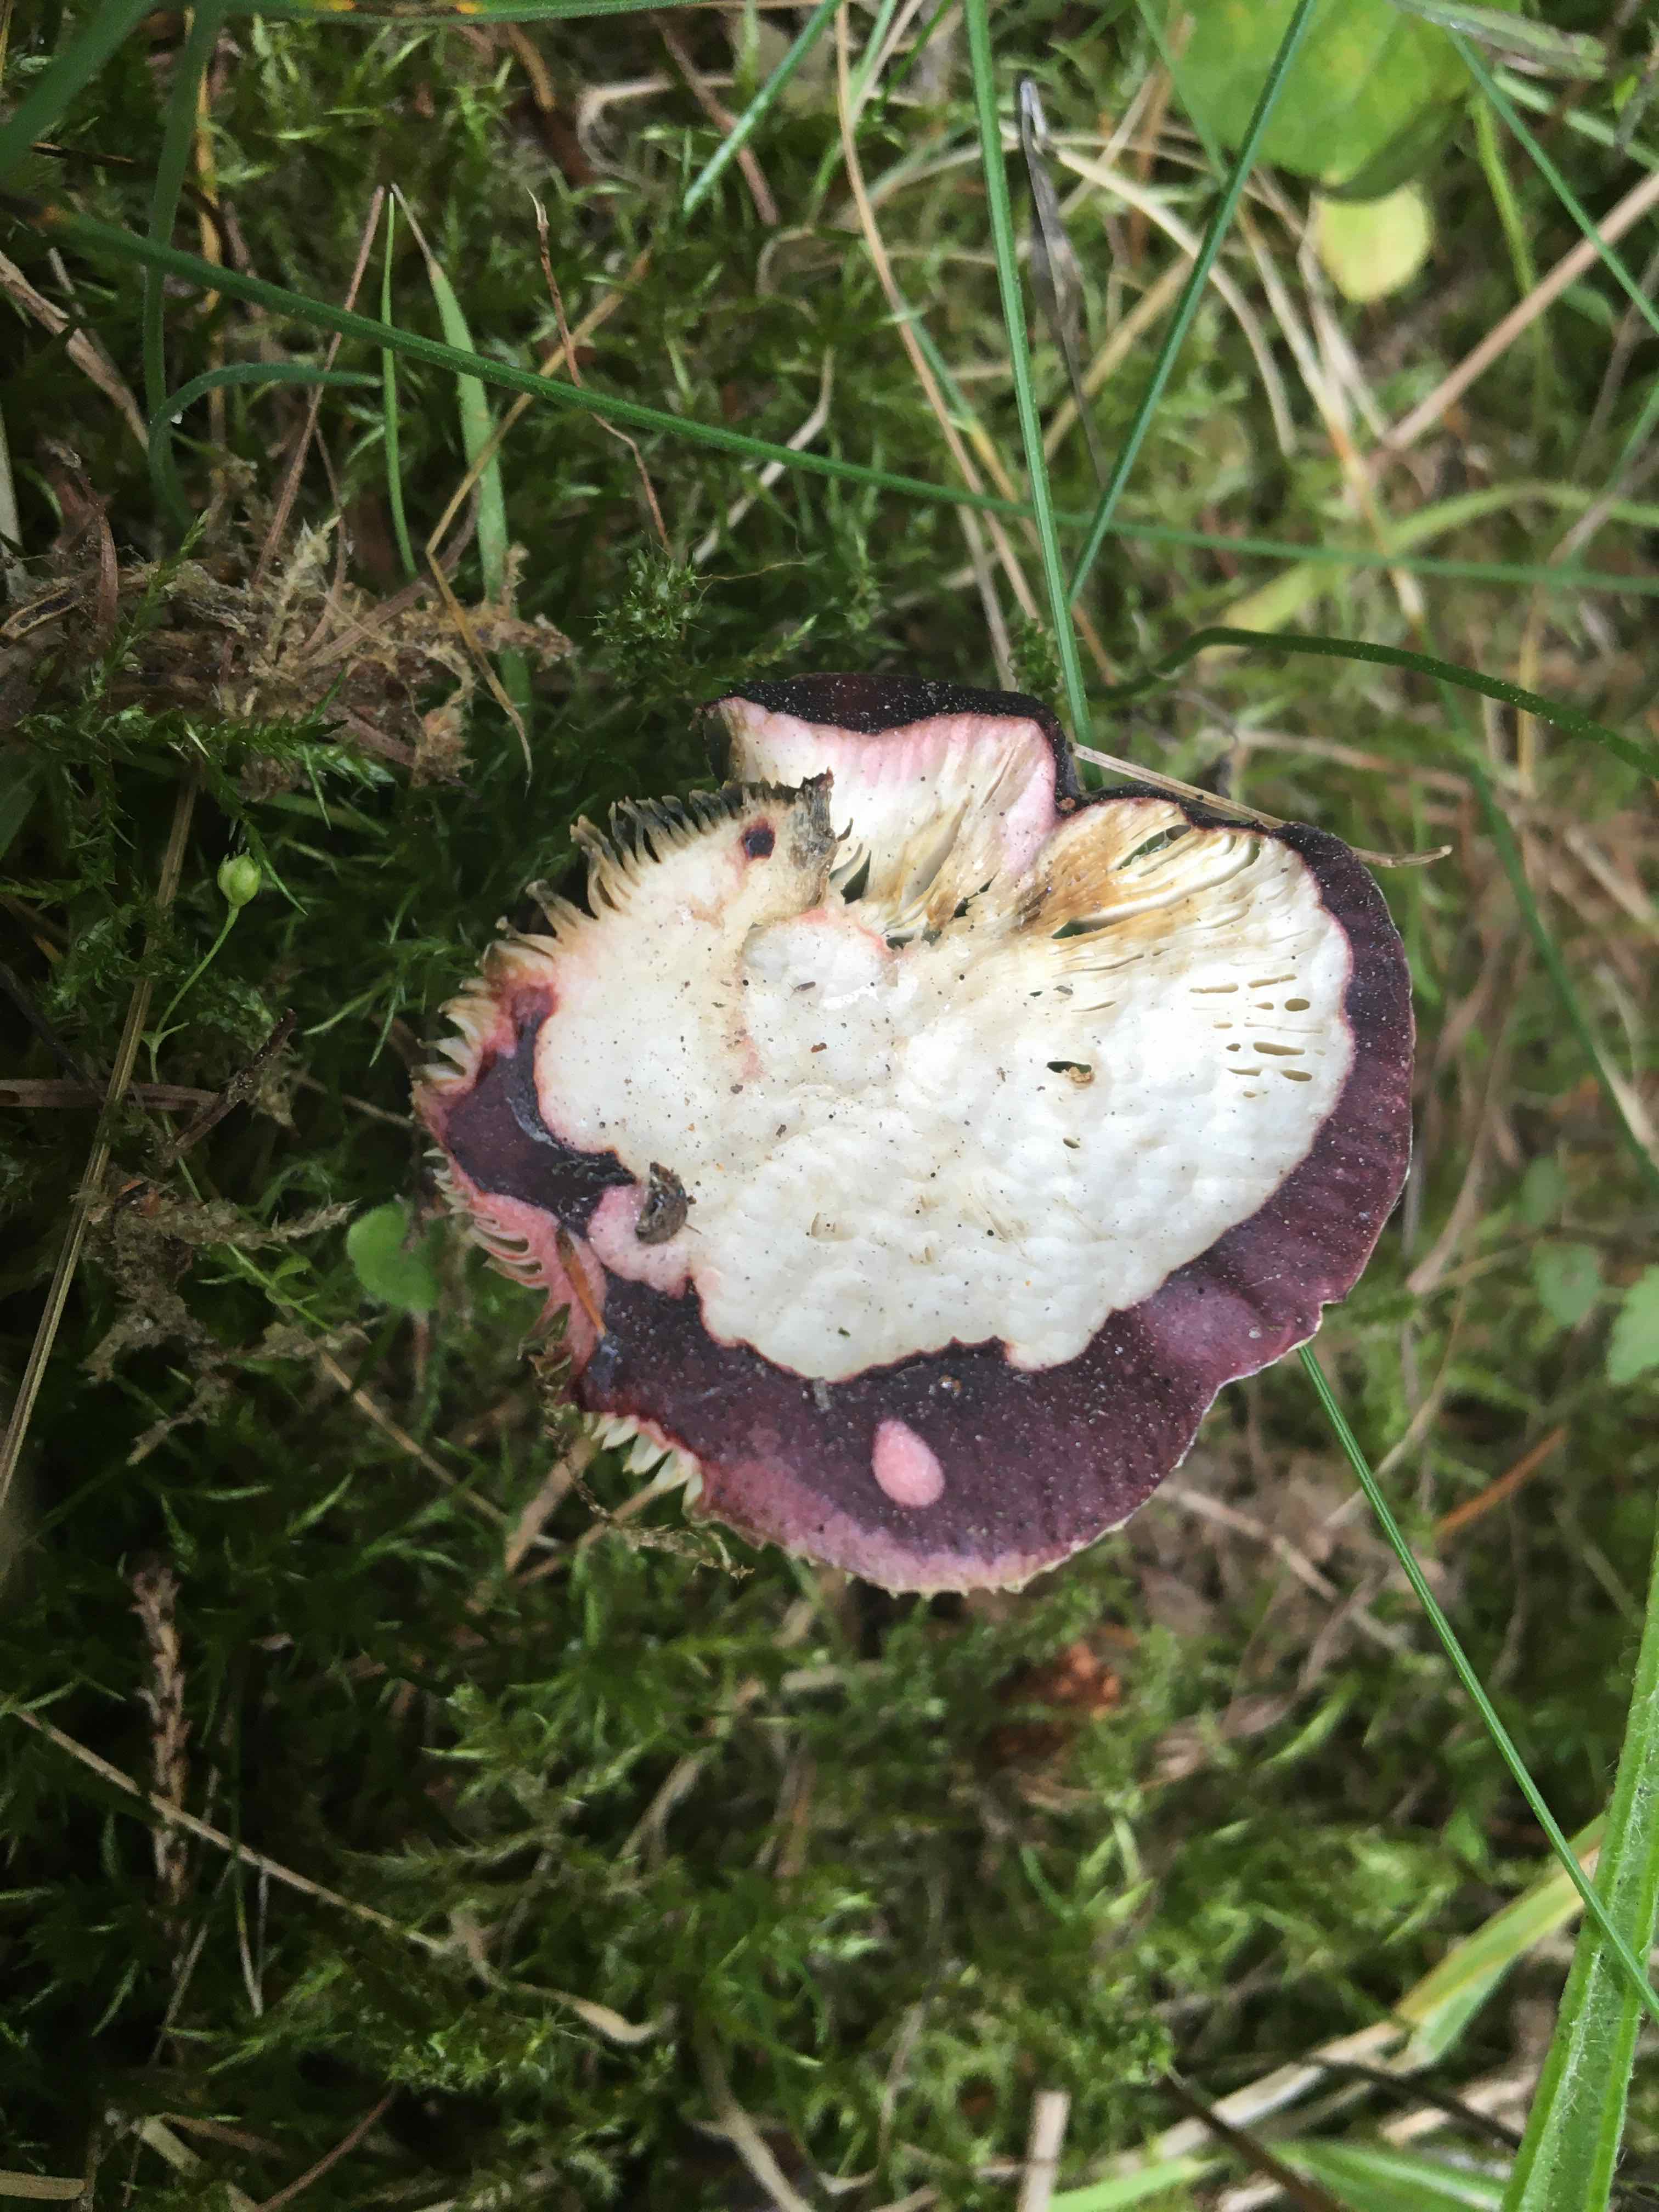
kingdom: Fungi
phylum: Basidiomycota
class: Agaricomycetes
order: Russulales
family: Russulaceae
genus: Russula
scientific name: Russula queletii
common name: Quélets skørhat
